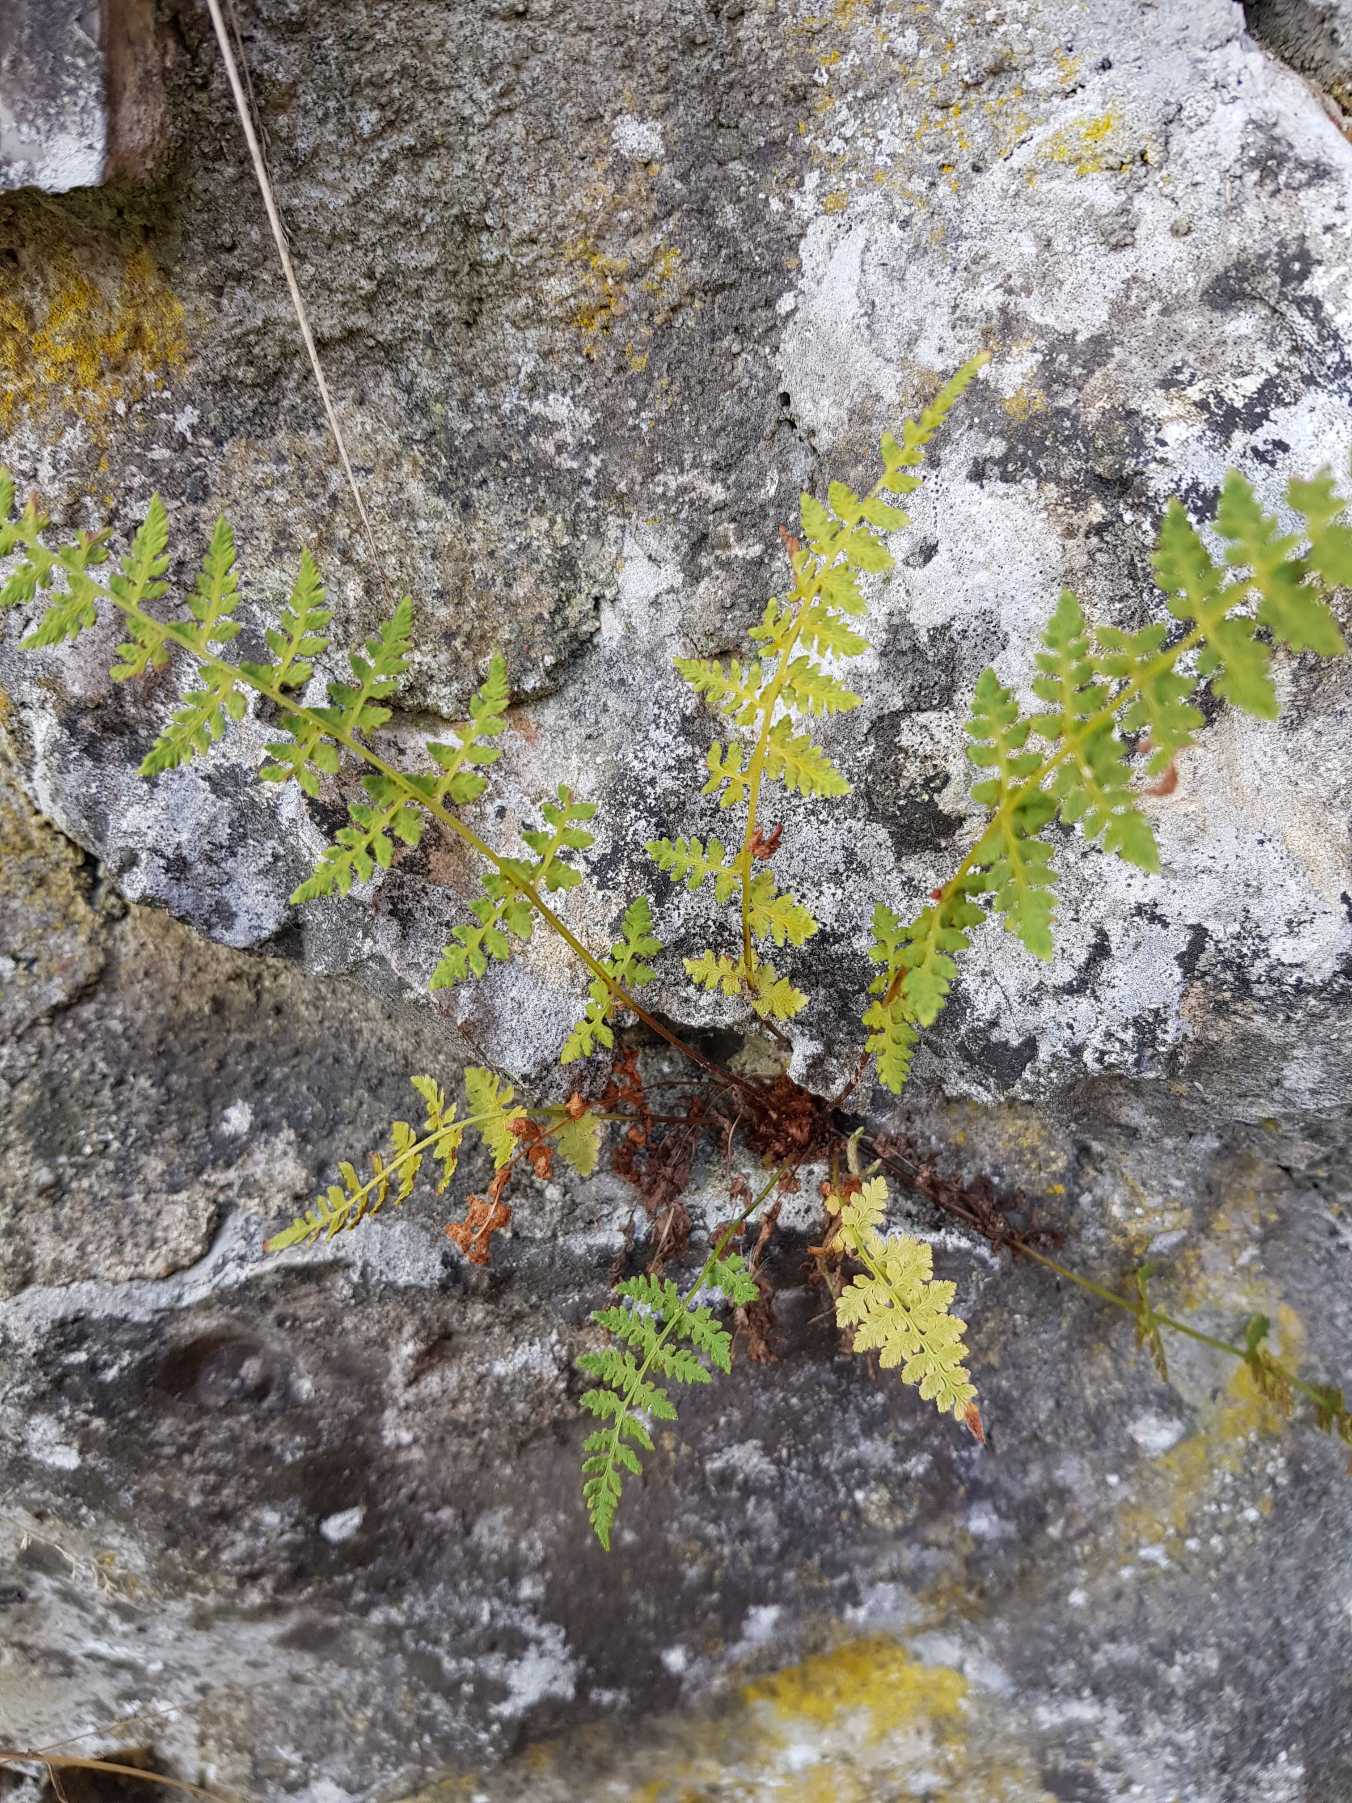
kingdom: Plantae
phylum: Tracheophyta
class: Polypodiopsida
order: Polypodiales
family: Cystopteridaceae
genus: Cystopteris
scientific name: Cystopteris fragilis
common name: Bægerbregne
